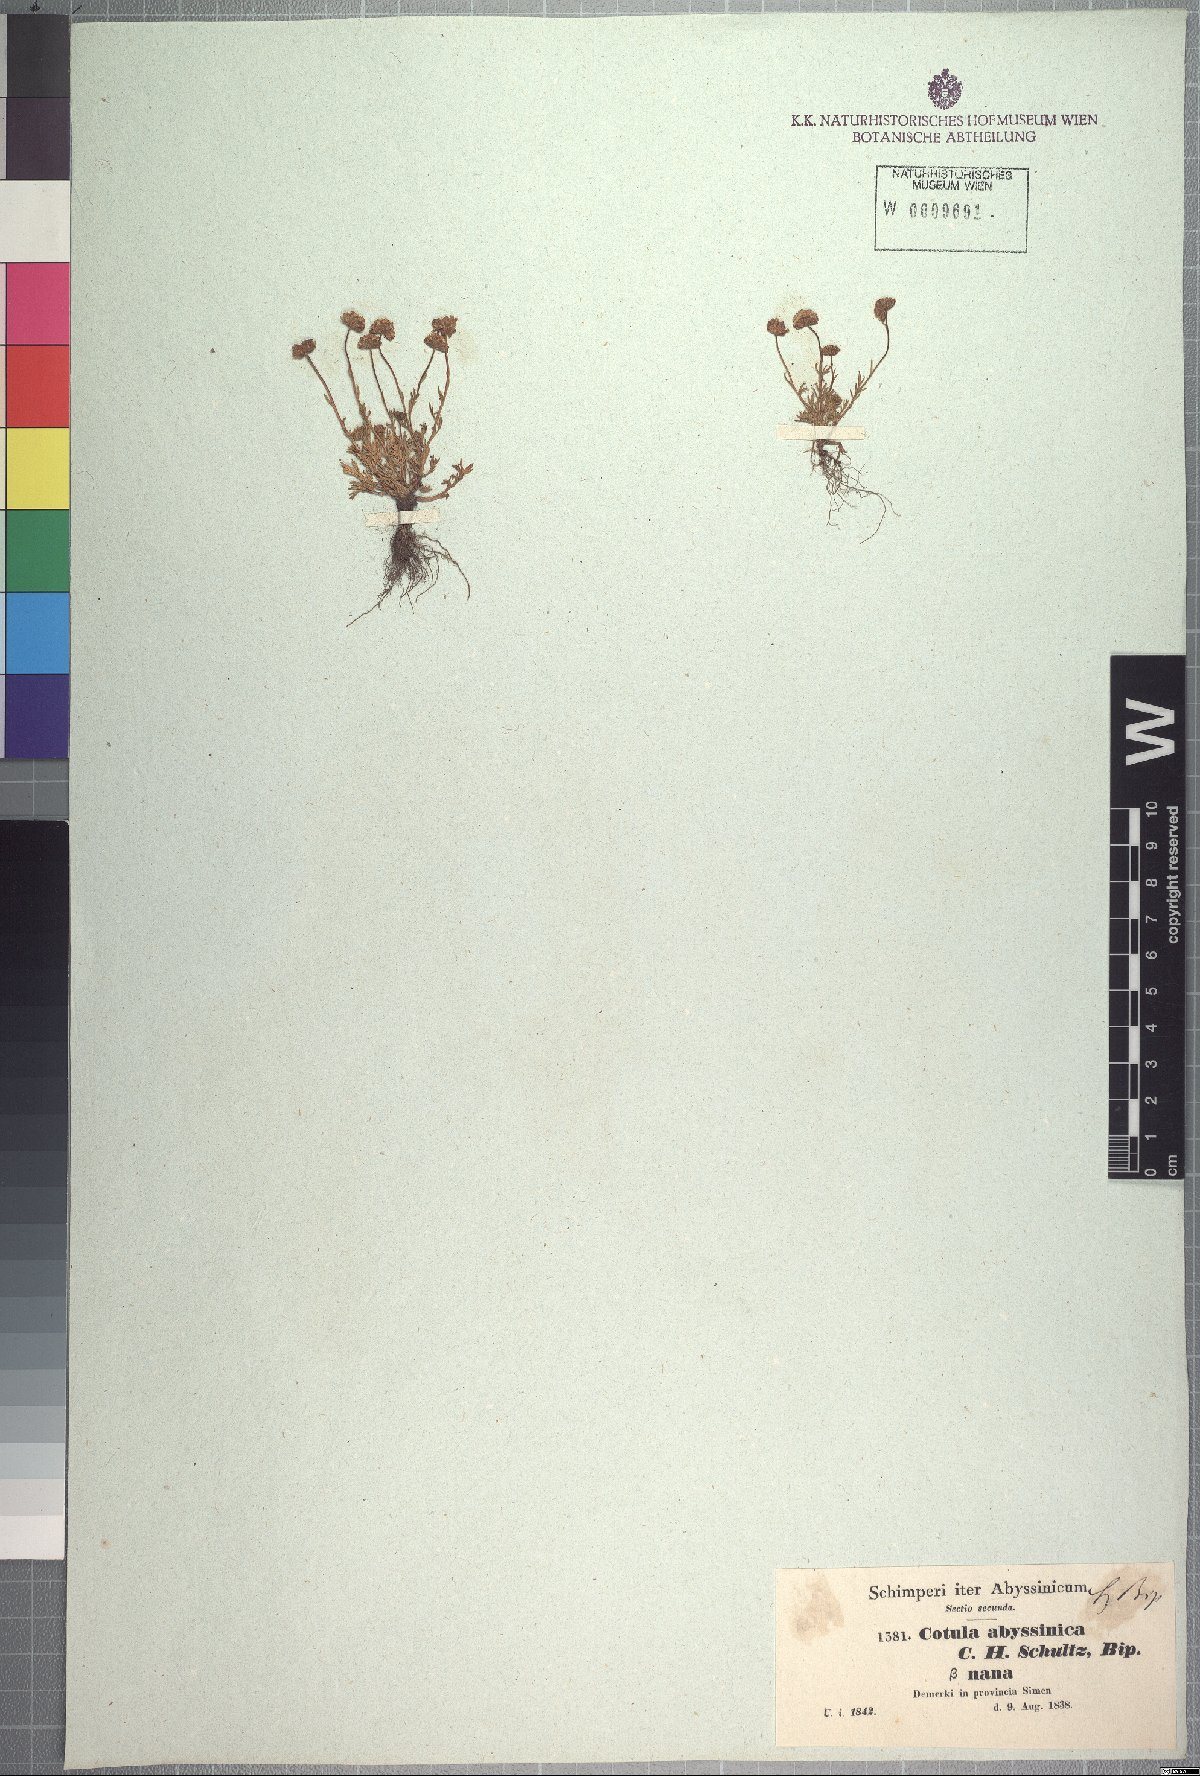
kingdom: Plantae
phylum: Tracheophyta
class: Magnoliopsida
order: Asterales
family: Asteraceae
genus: Cotula
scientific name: Cotula abyssinica
